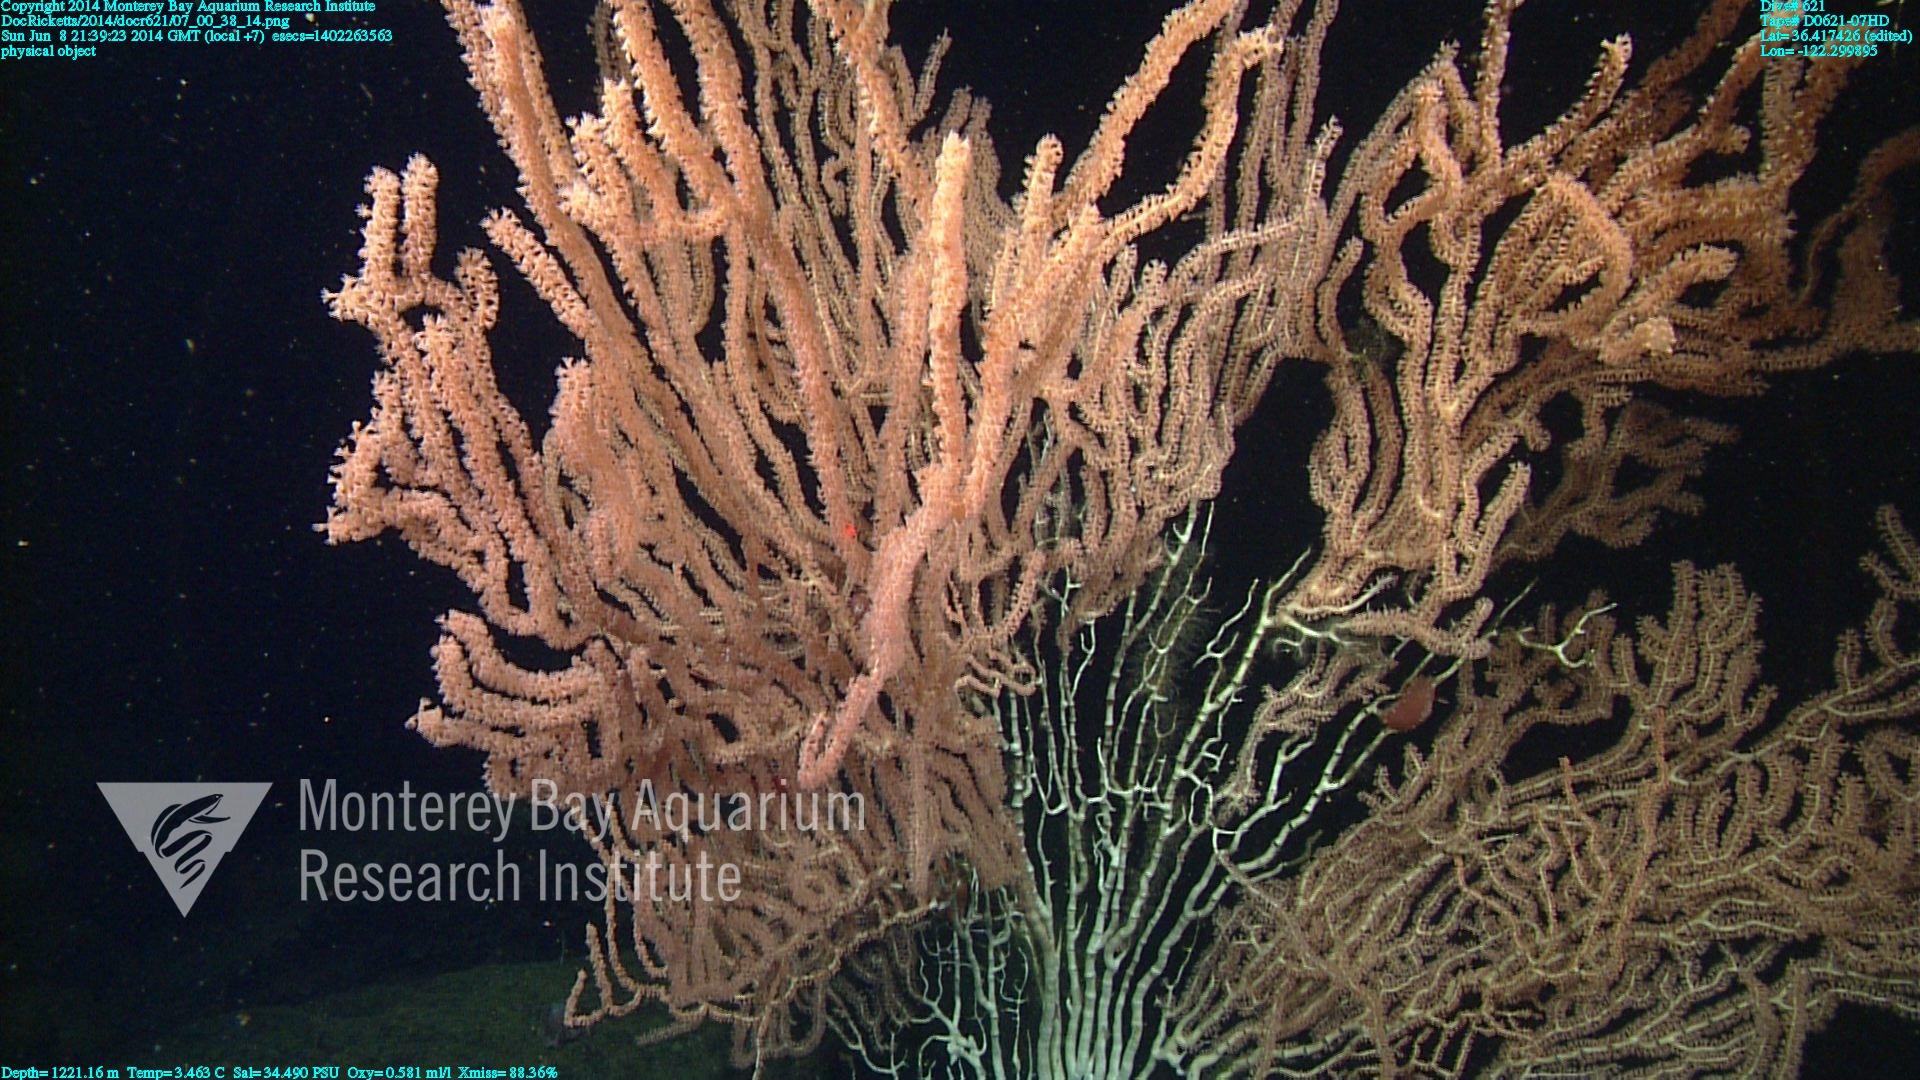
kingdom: Animalia
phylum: Cnidaria
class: Anthozoa
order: Scleralcyonacea
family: Keratoisididae
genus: Keratoisis
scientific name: Keratoisis
